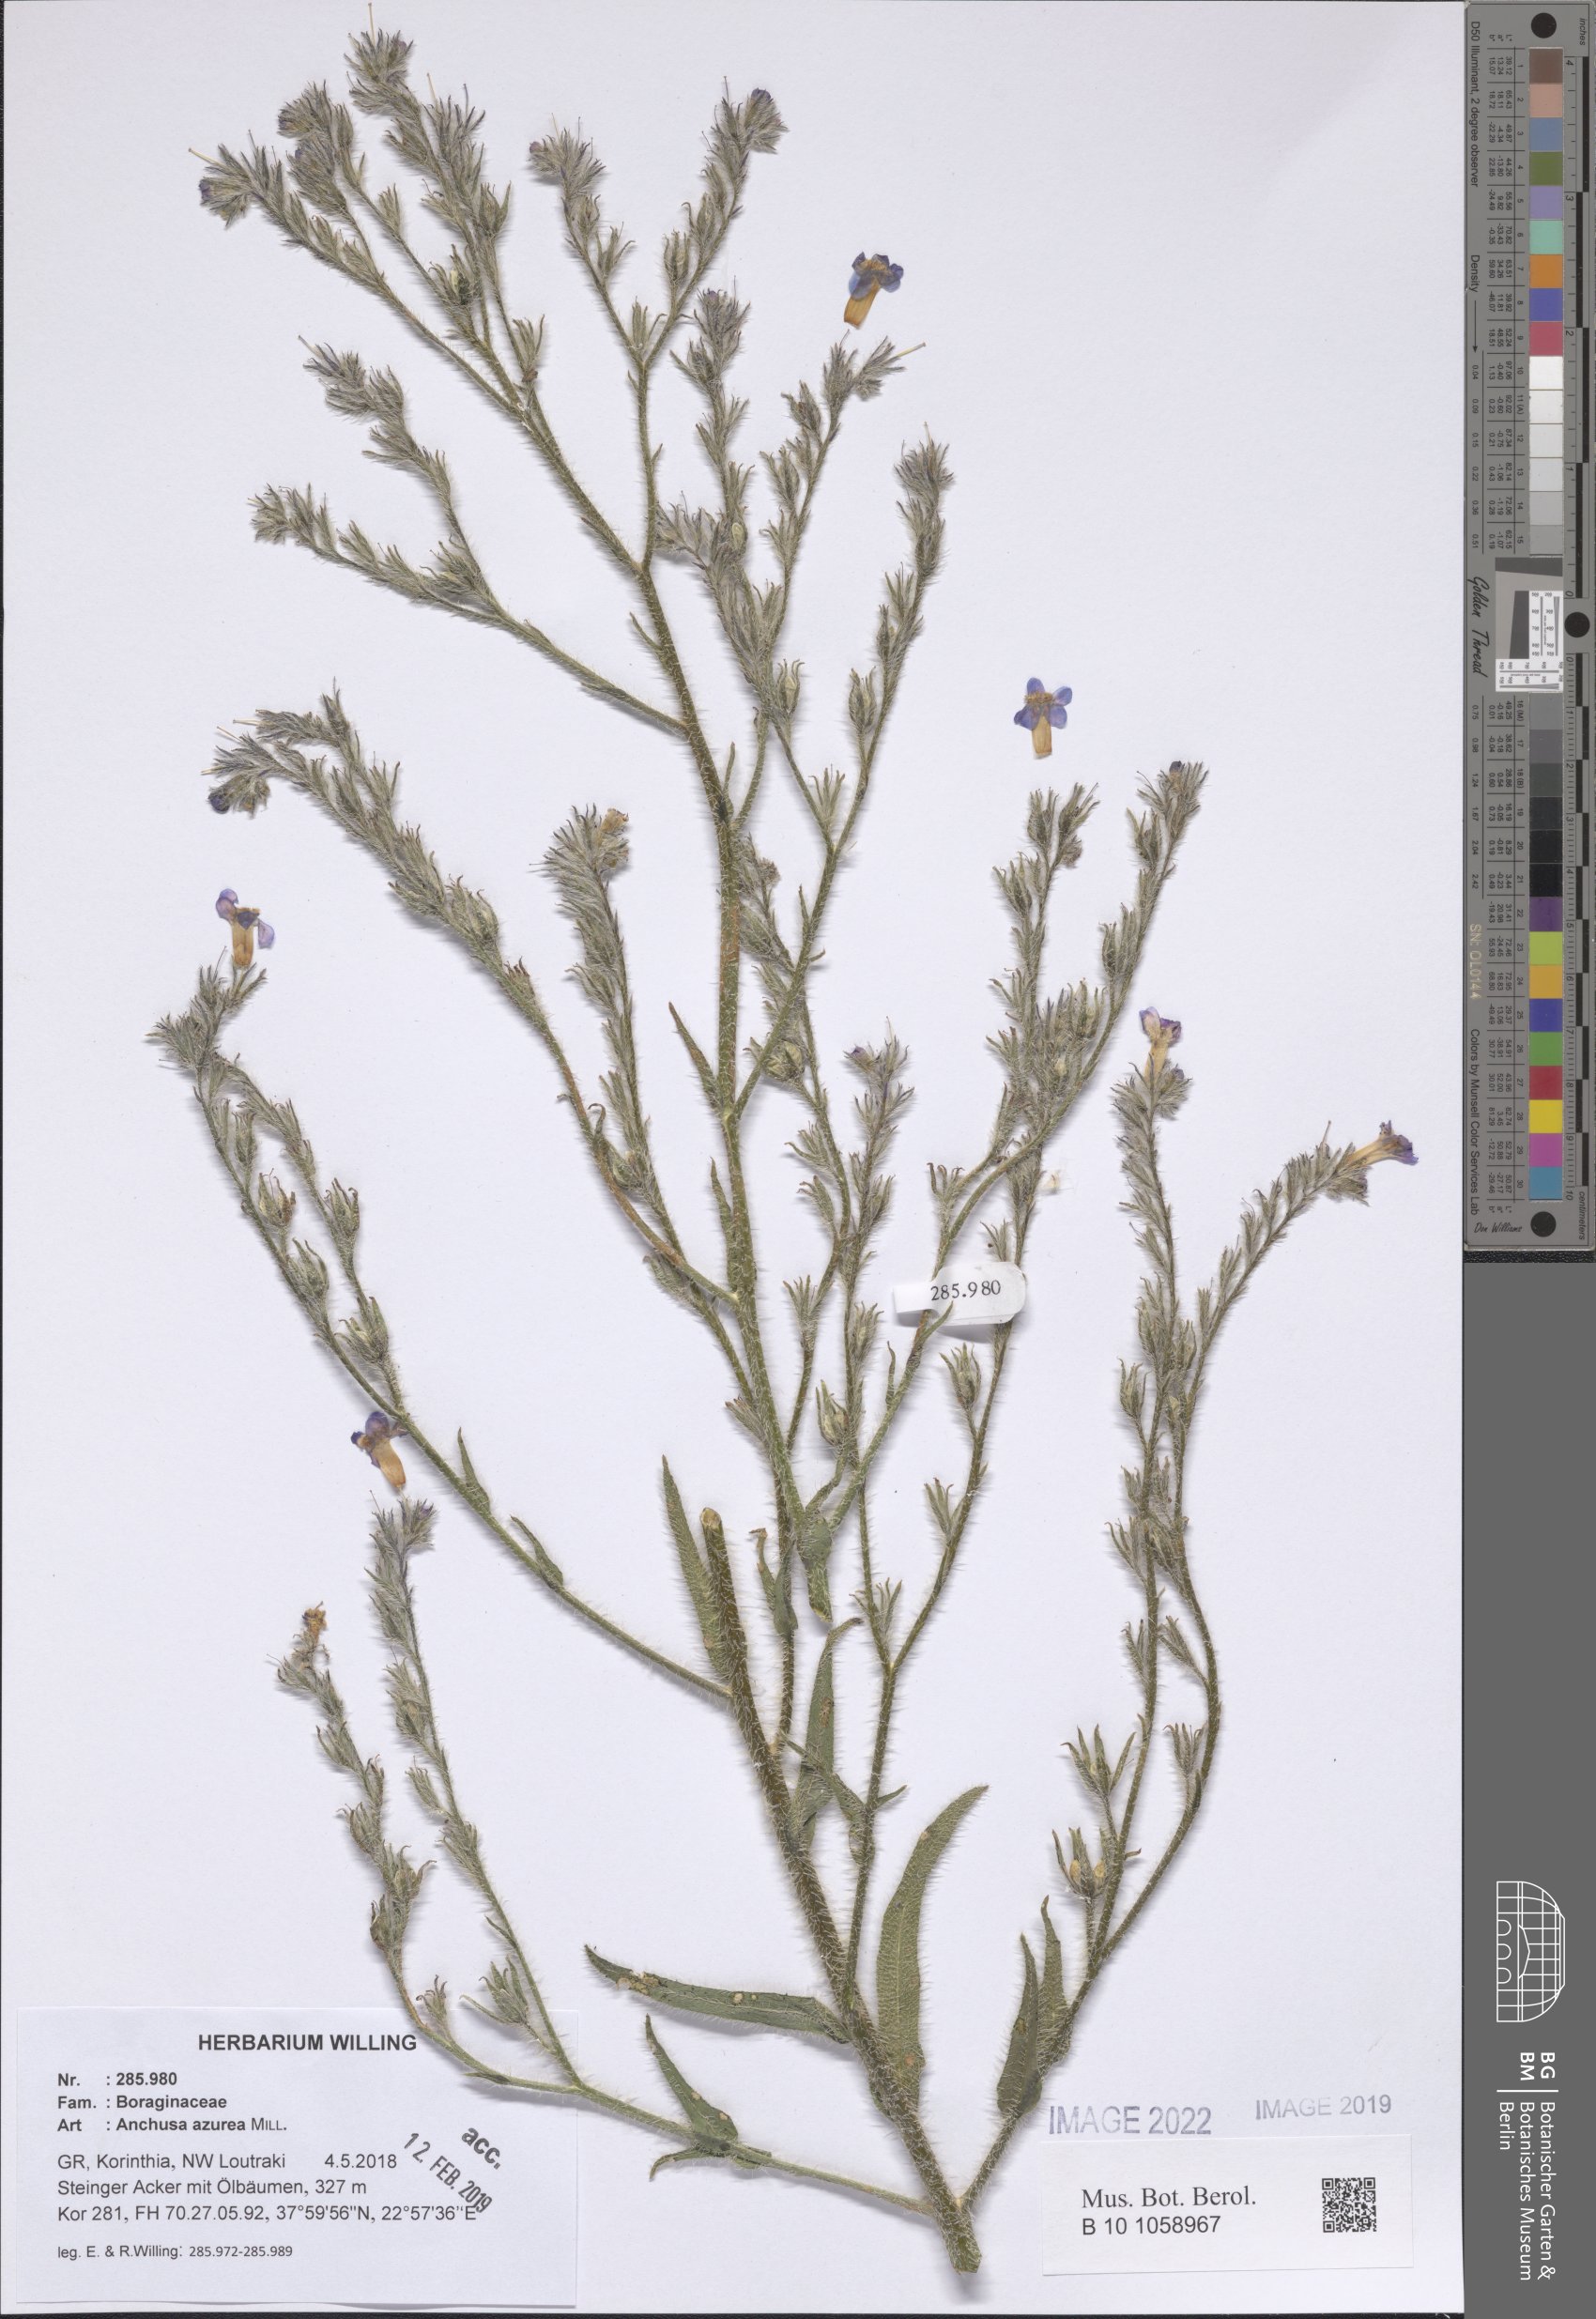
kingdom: Plantae
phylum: Tracheophyta
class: Magnoliopsida
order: Boraginales
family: Boraginaceae
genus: Anchusa
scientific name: Anchusa azurea
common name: Garden anchusa
